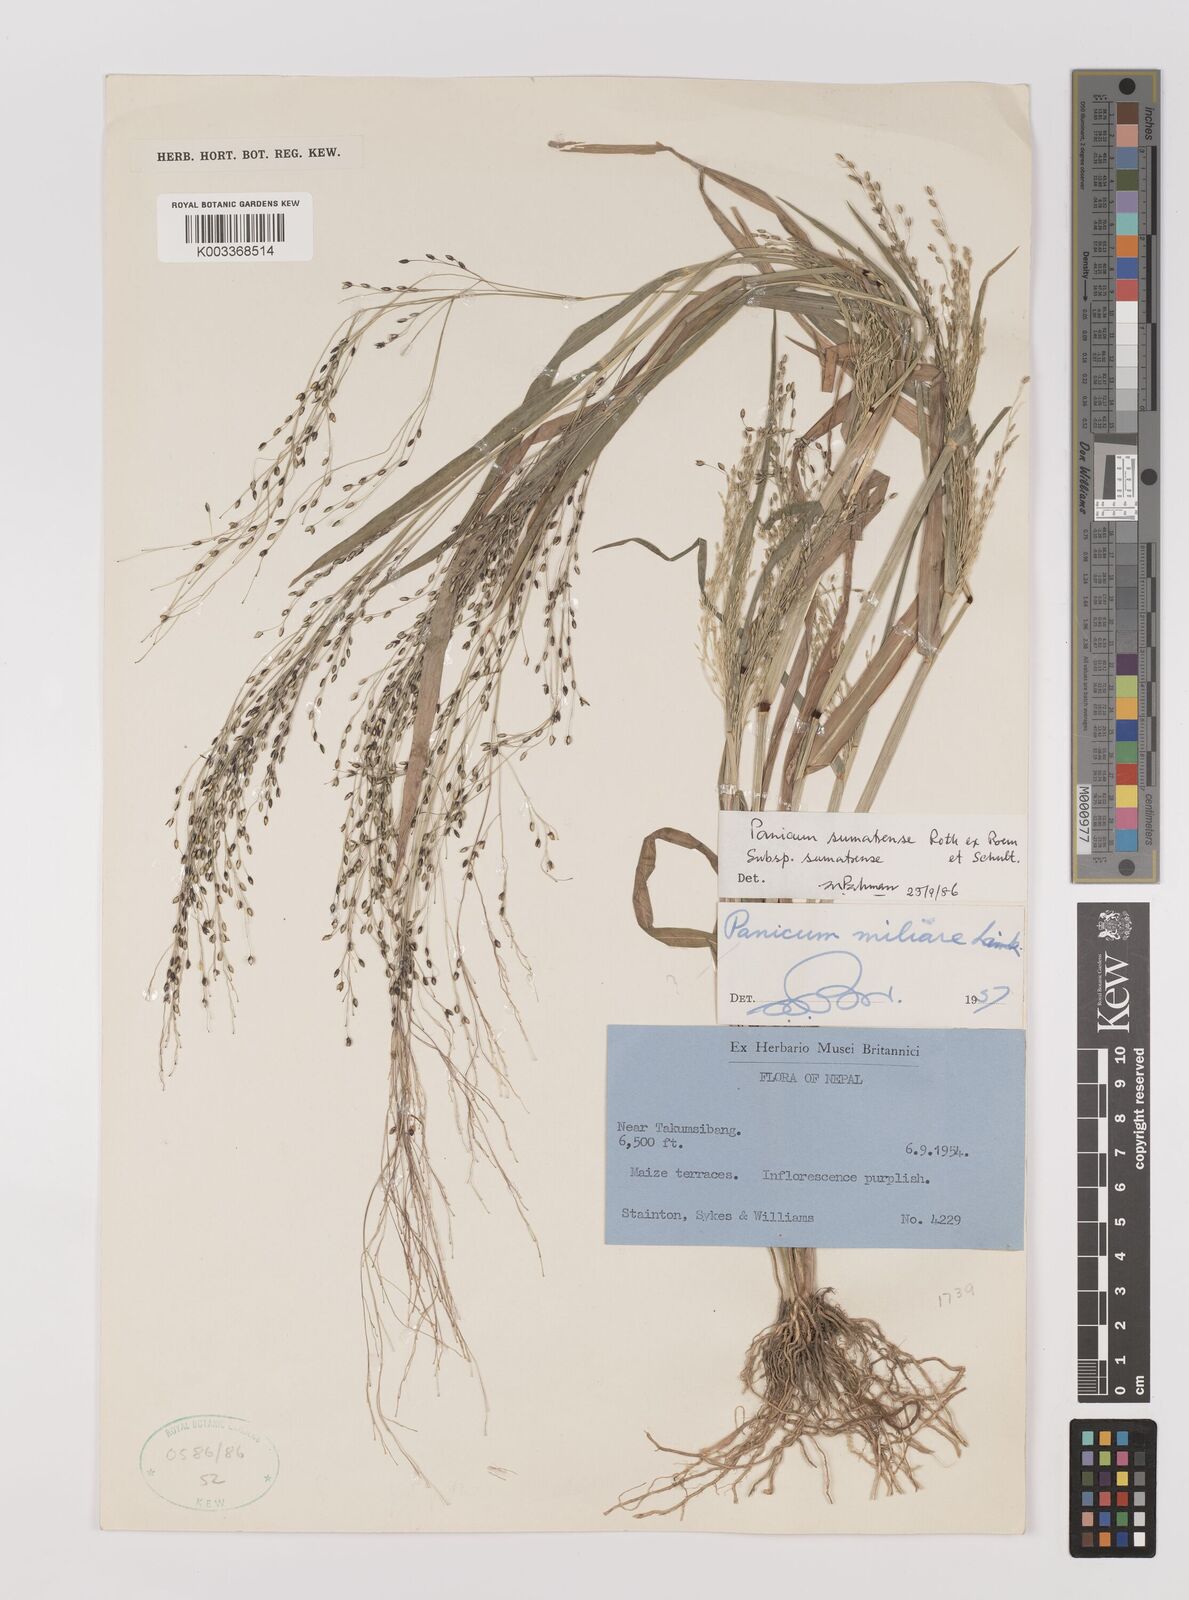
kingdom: Plantae
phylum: Tracheophyta
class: Liliopsida
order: Poales
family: Poaceae
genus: Panicum
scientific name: Panicum sumatrense
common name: Little millet
